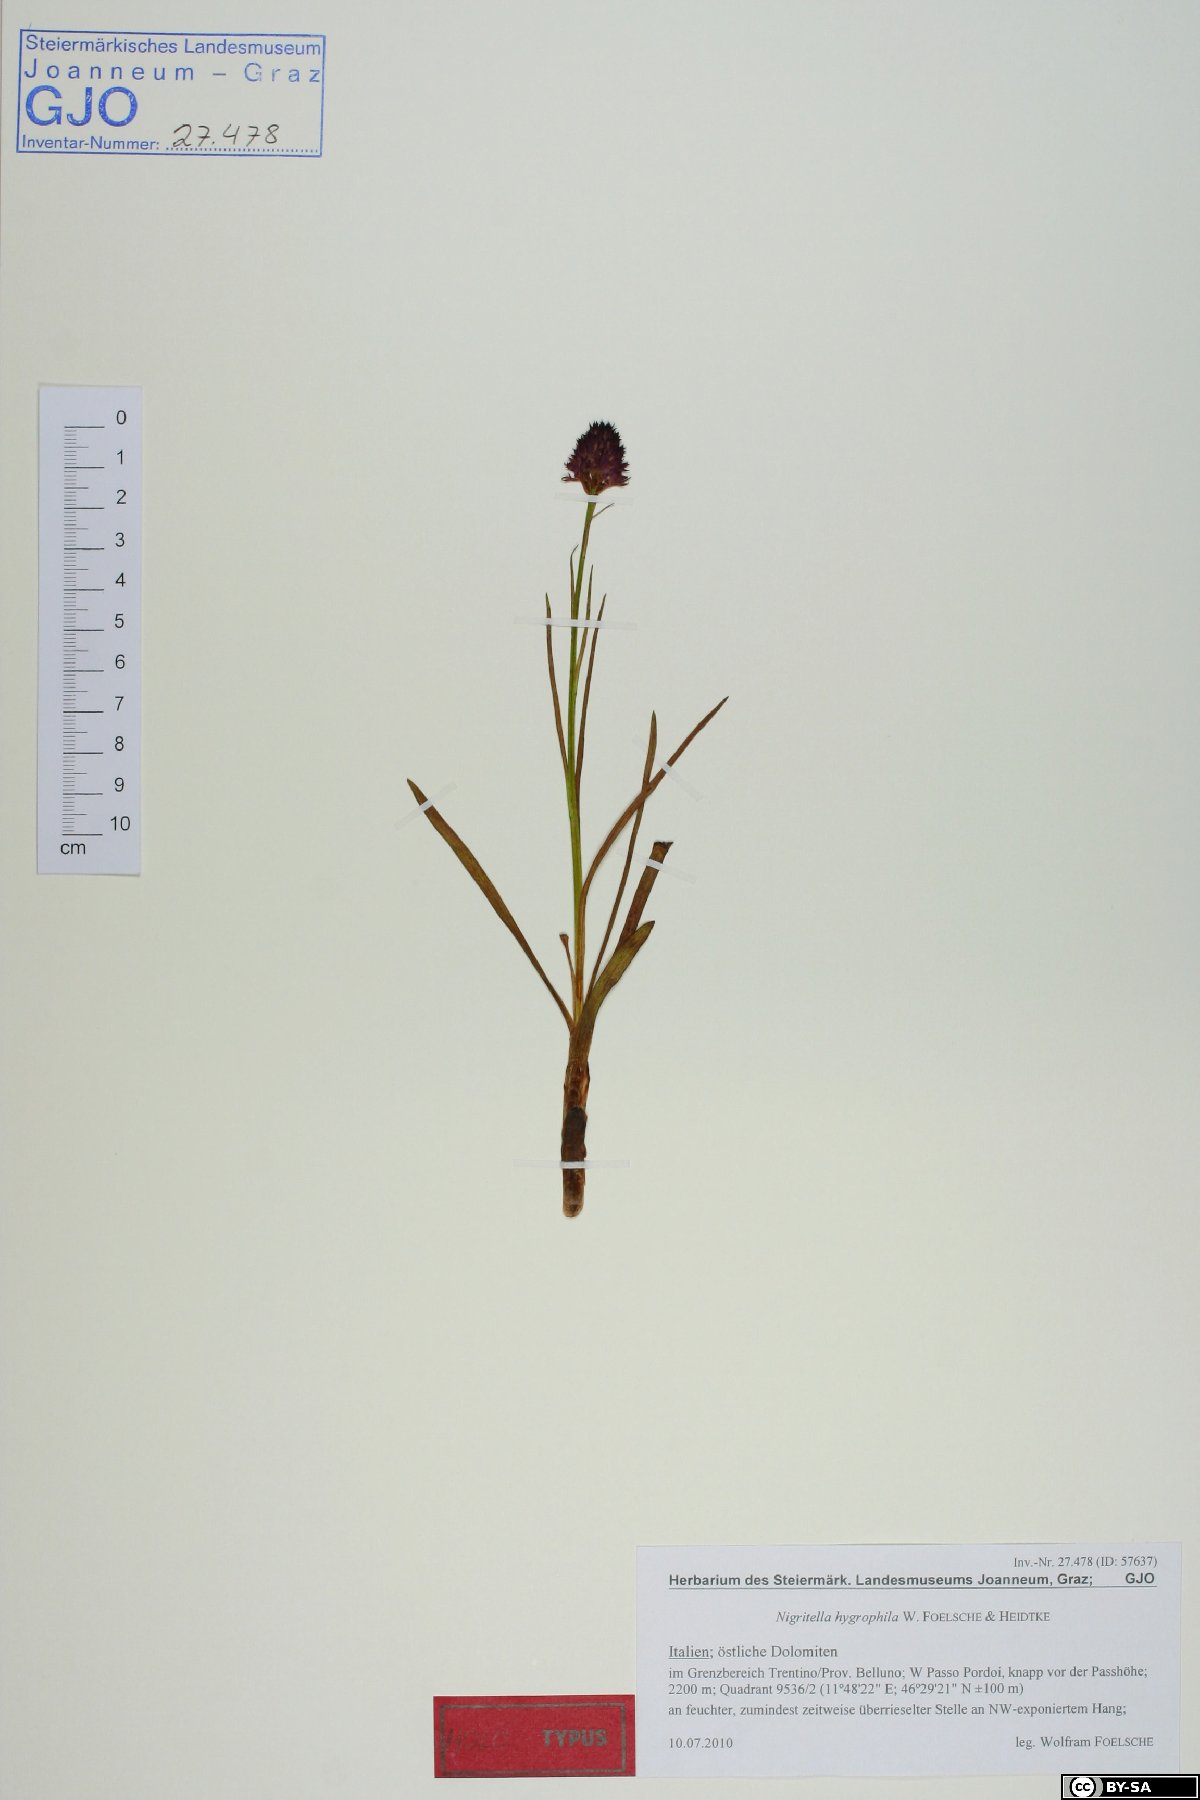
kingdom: Plantae
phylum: Tracheophyta
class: Liliopsida
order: Asparagales
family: Orchidaceae
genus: Gymnadenia
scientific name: Gymnadenia hygrophila
